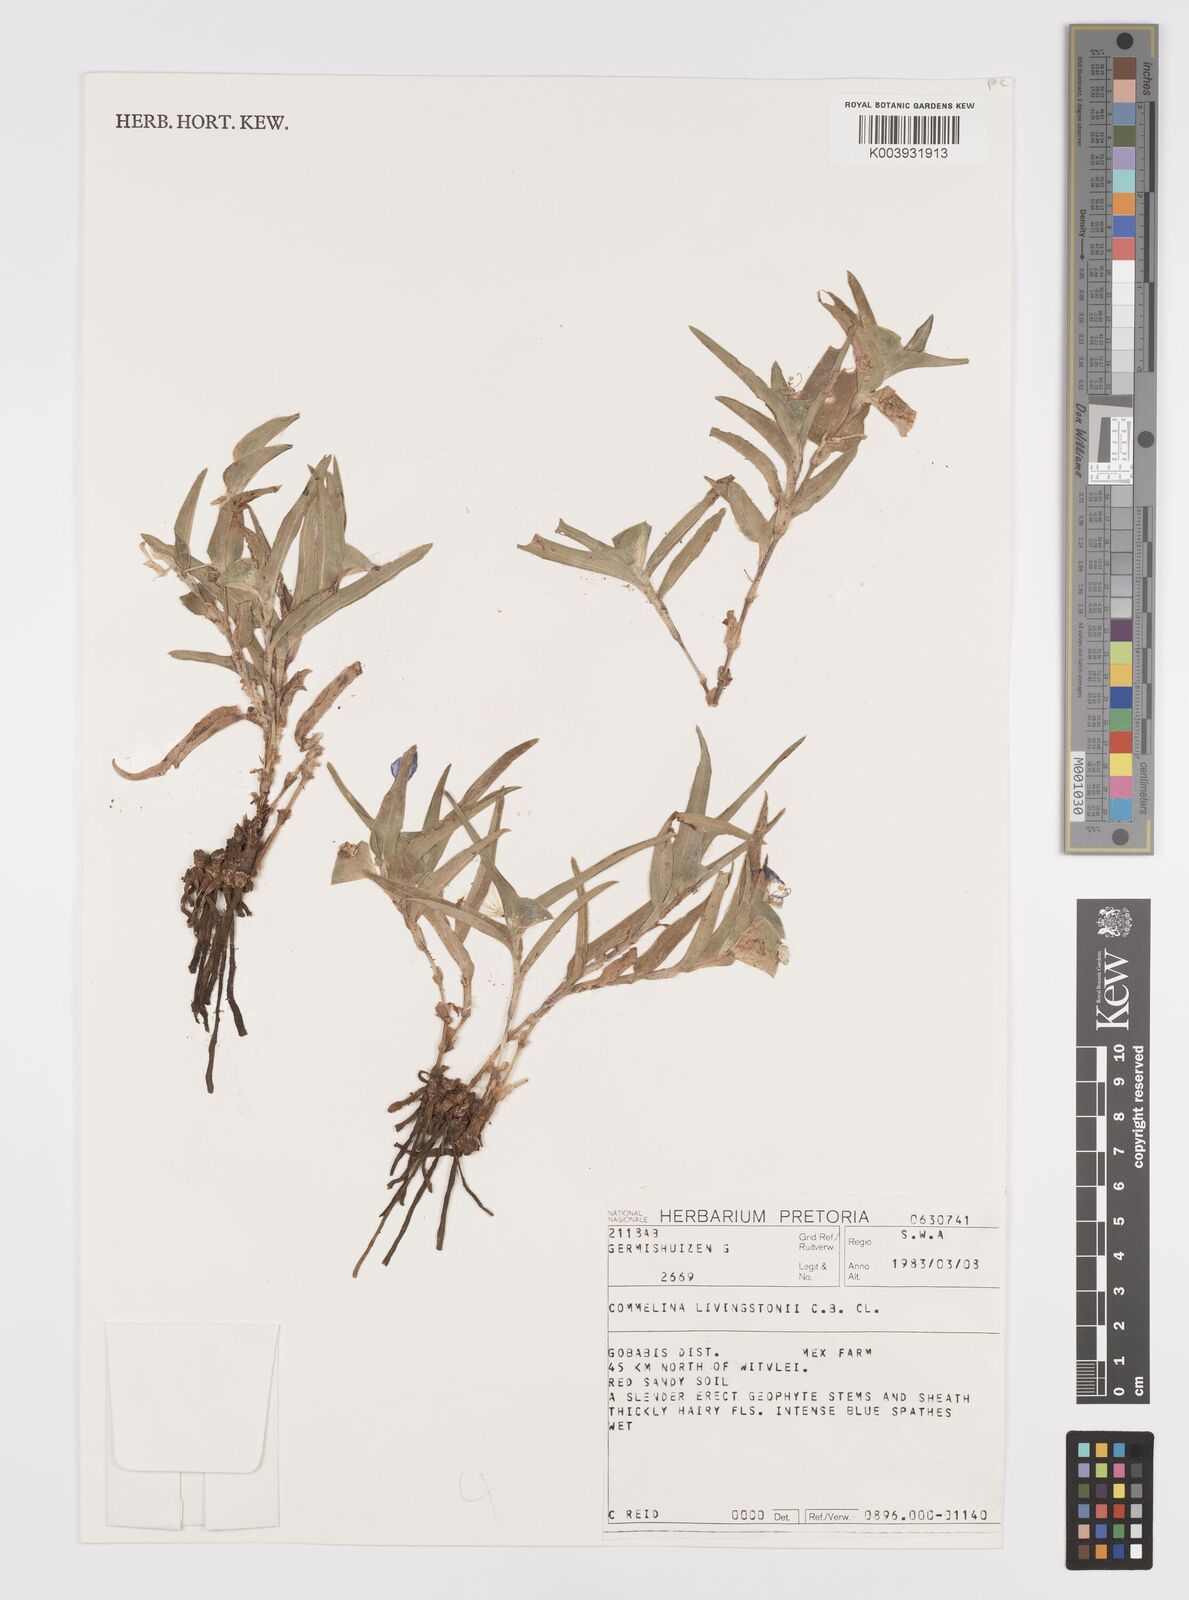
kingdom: Plantae
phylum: Tracheophyta
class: Liliopsida
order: Commelinales
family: Commelinaceae
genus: Commelina
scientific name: Commelina erecta
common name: Blousel blommetjie
